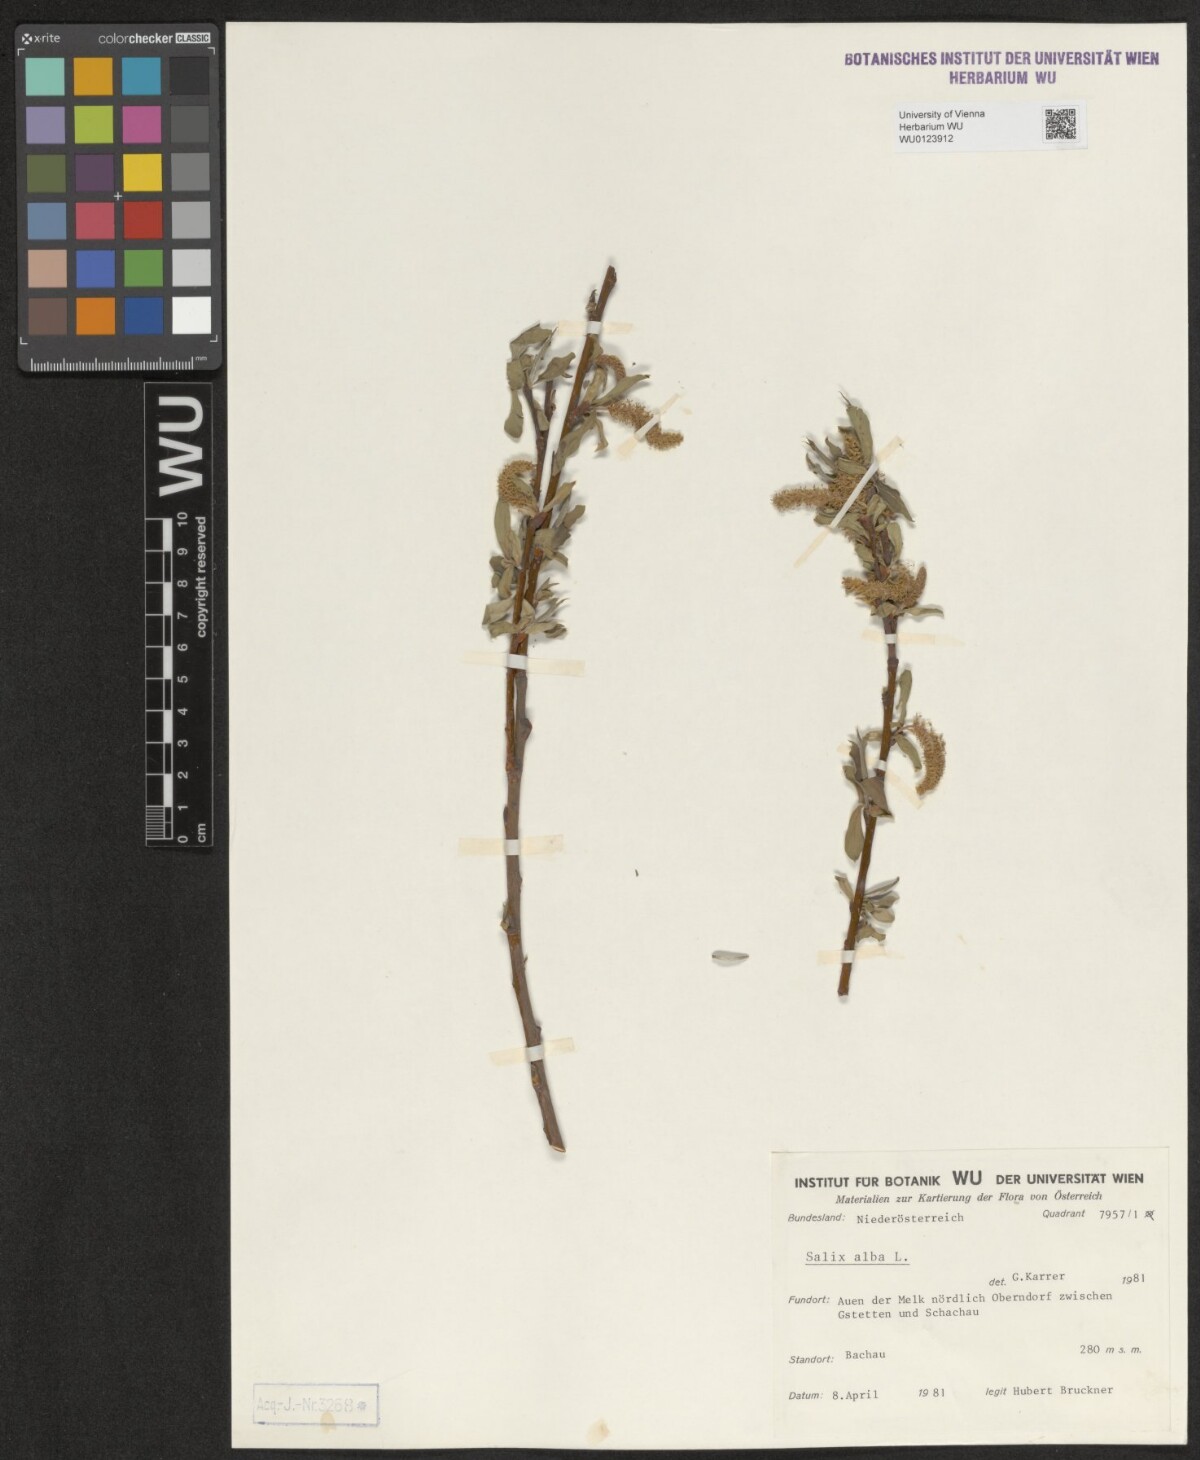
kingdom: Plantae
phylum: Tracheophyta
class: Magnoliopsida
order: Malpighiales
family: Salicaceae
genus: Salix
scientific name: Salix alba
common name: White willow
